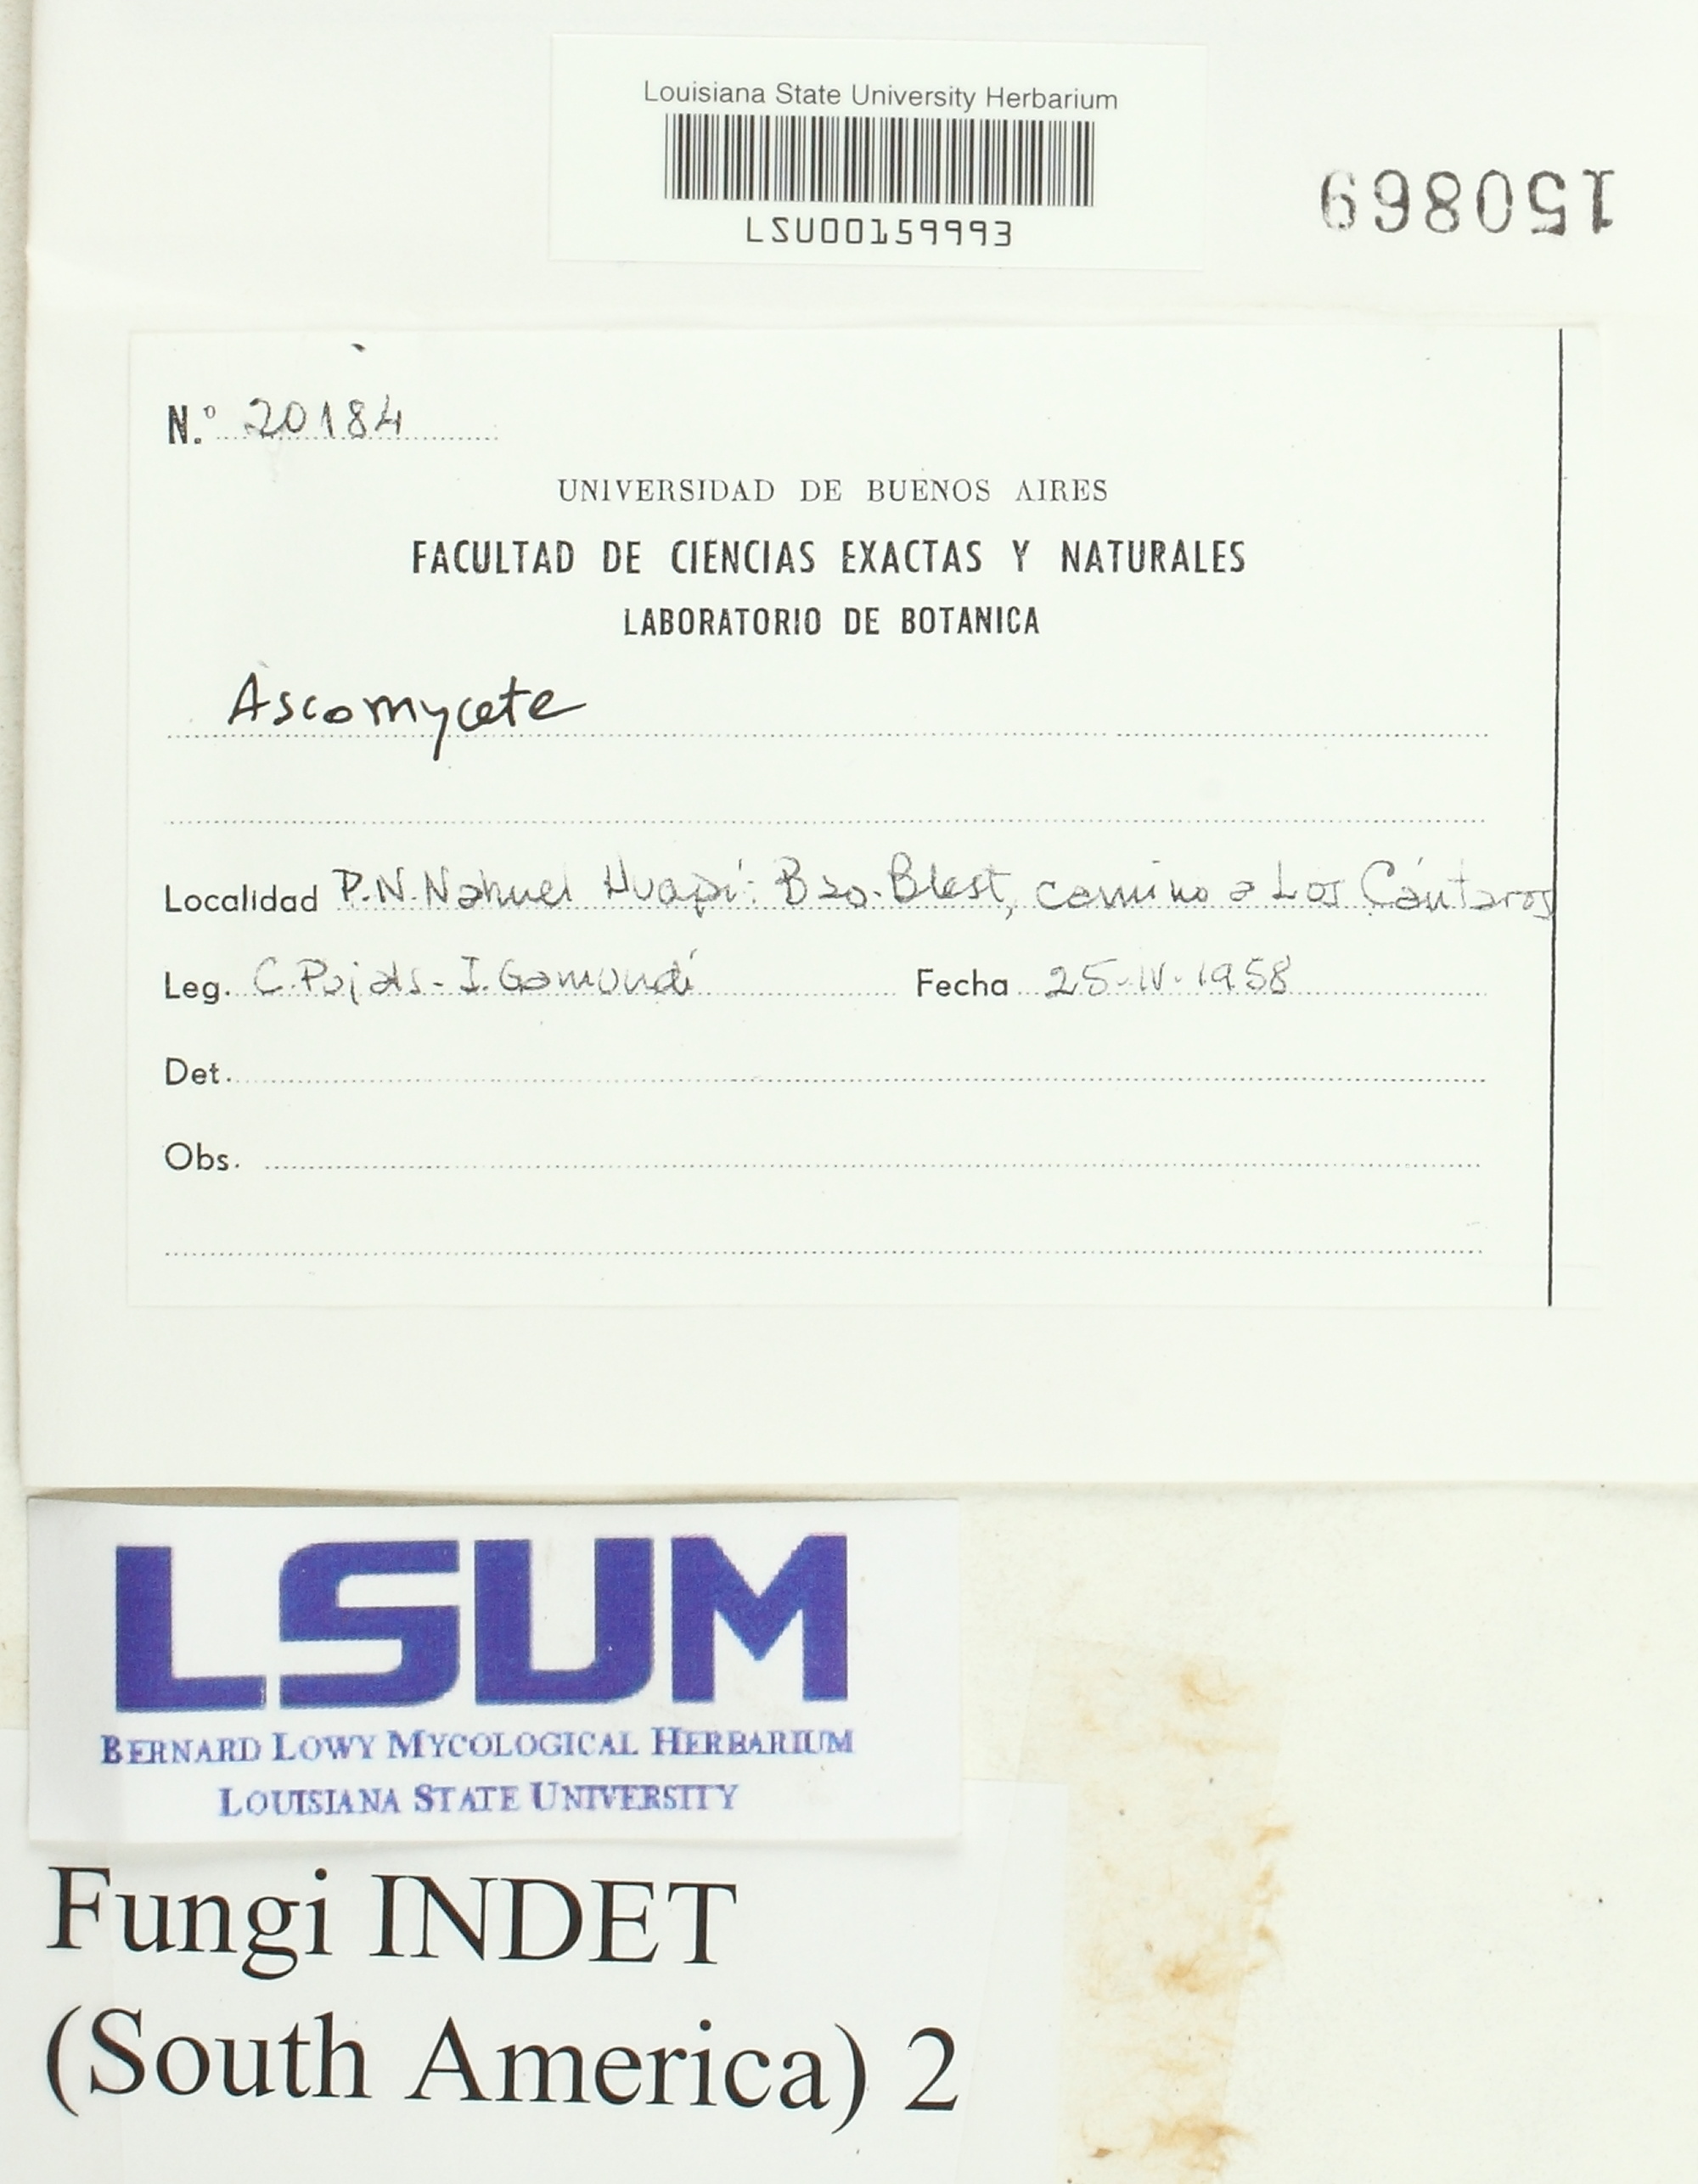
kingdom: Fungi
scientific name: Fungi
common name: Fungi
